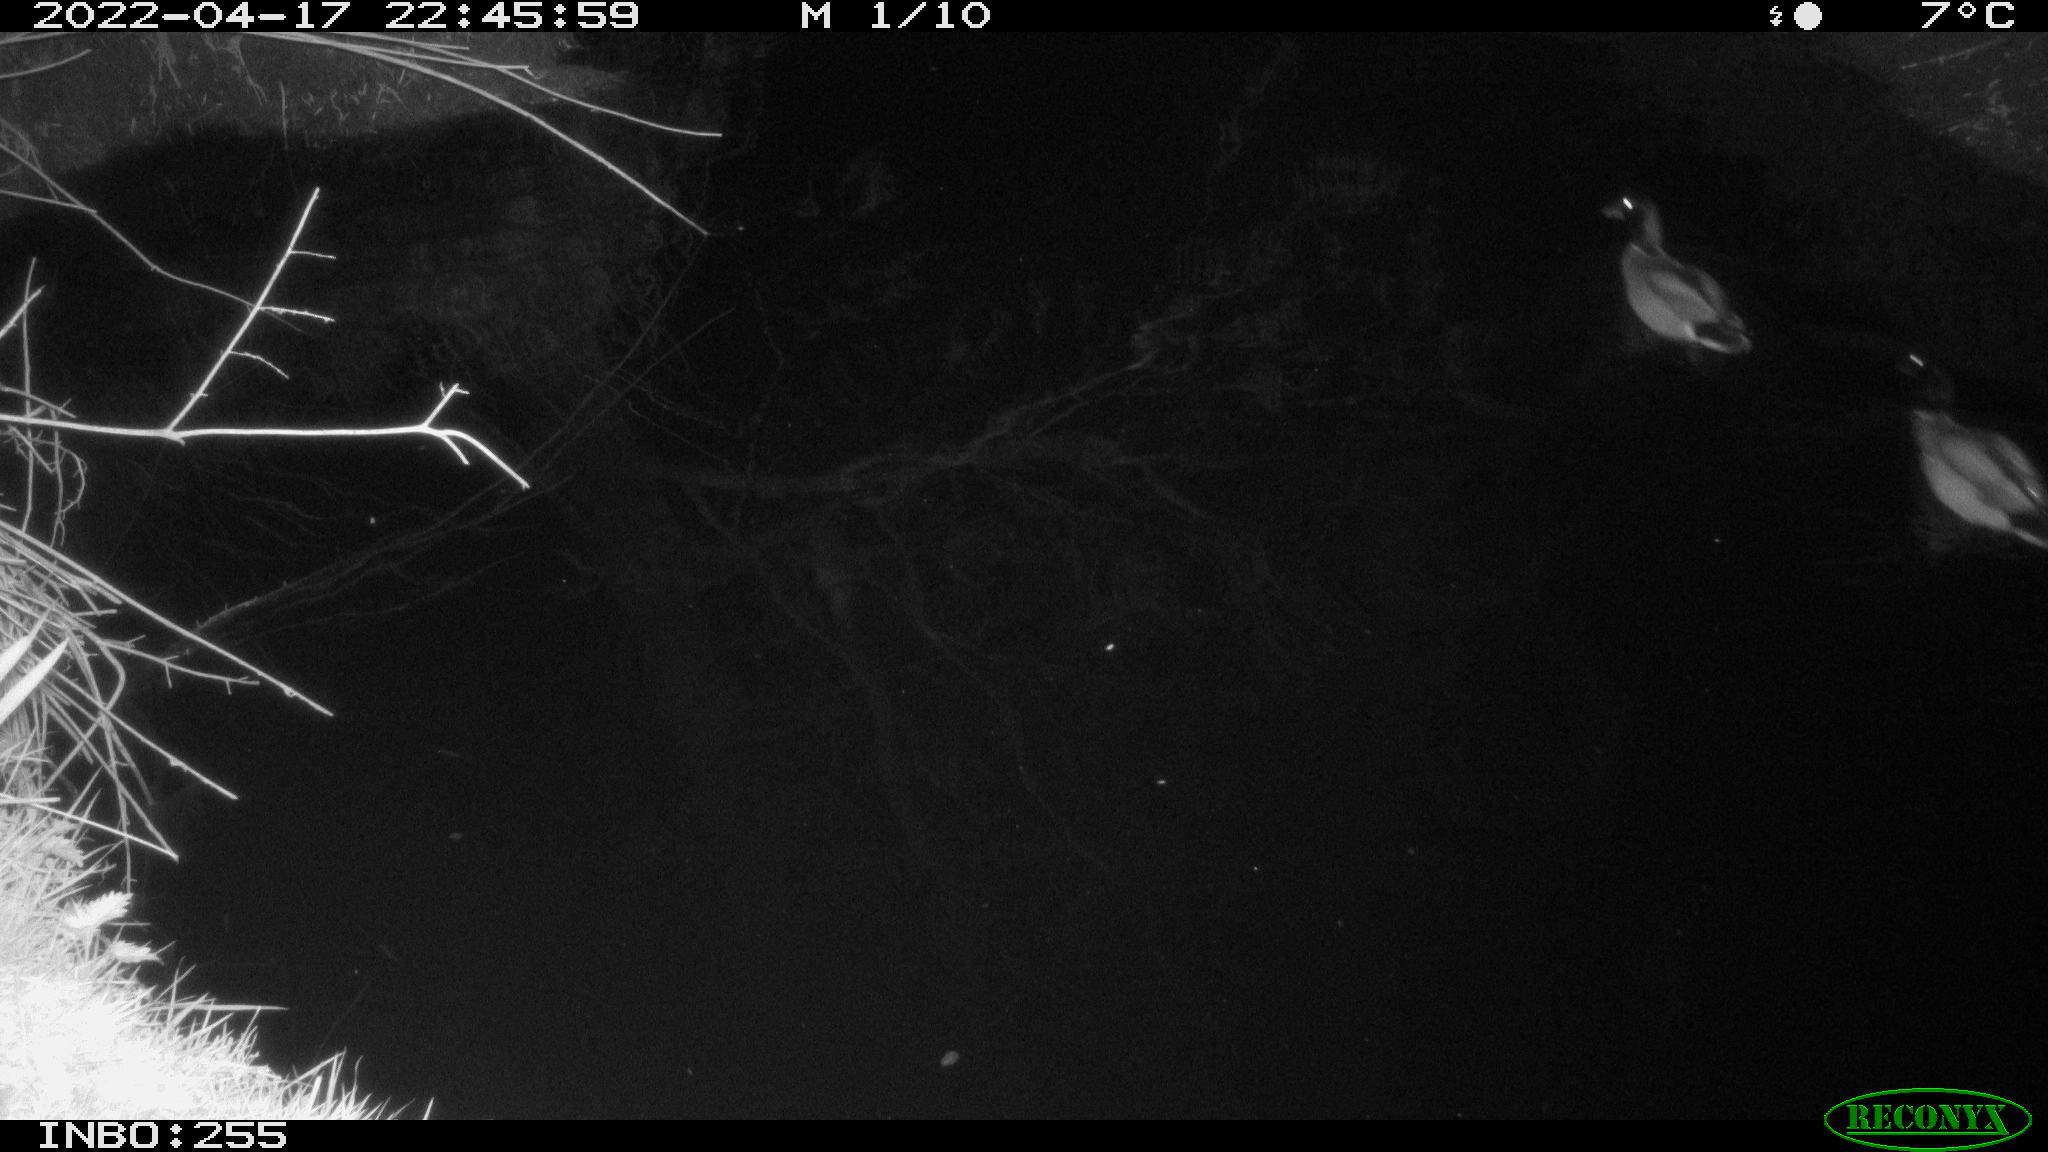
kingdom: Animalia
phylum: Chordata
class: Aves
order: Anseriformes
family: Anatidae
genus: Anas
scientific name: Anas platyrhynchos
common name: Mallard
